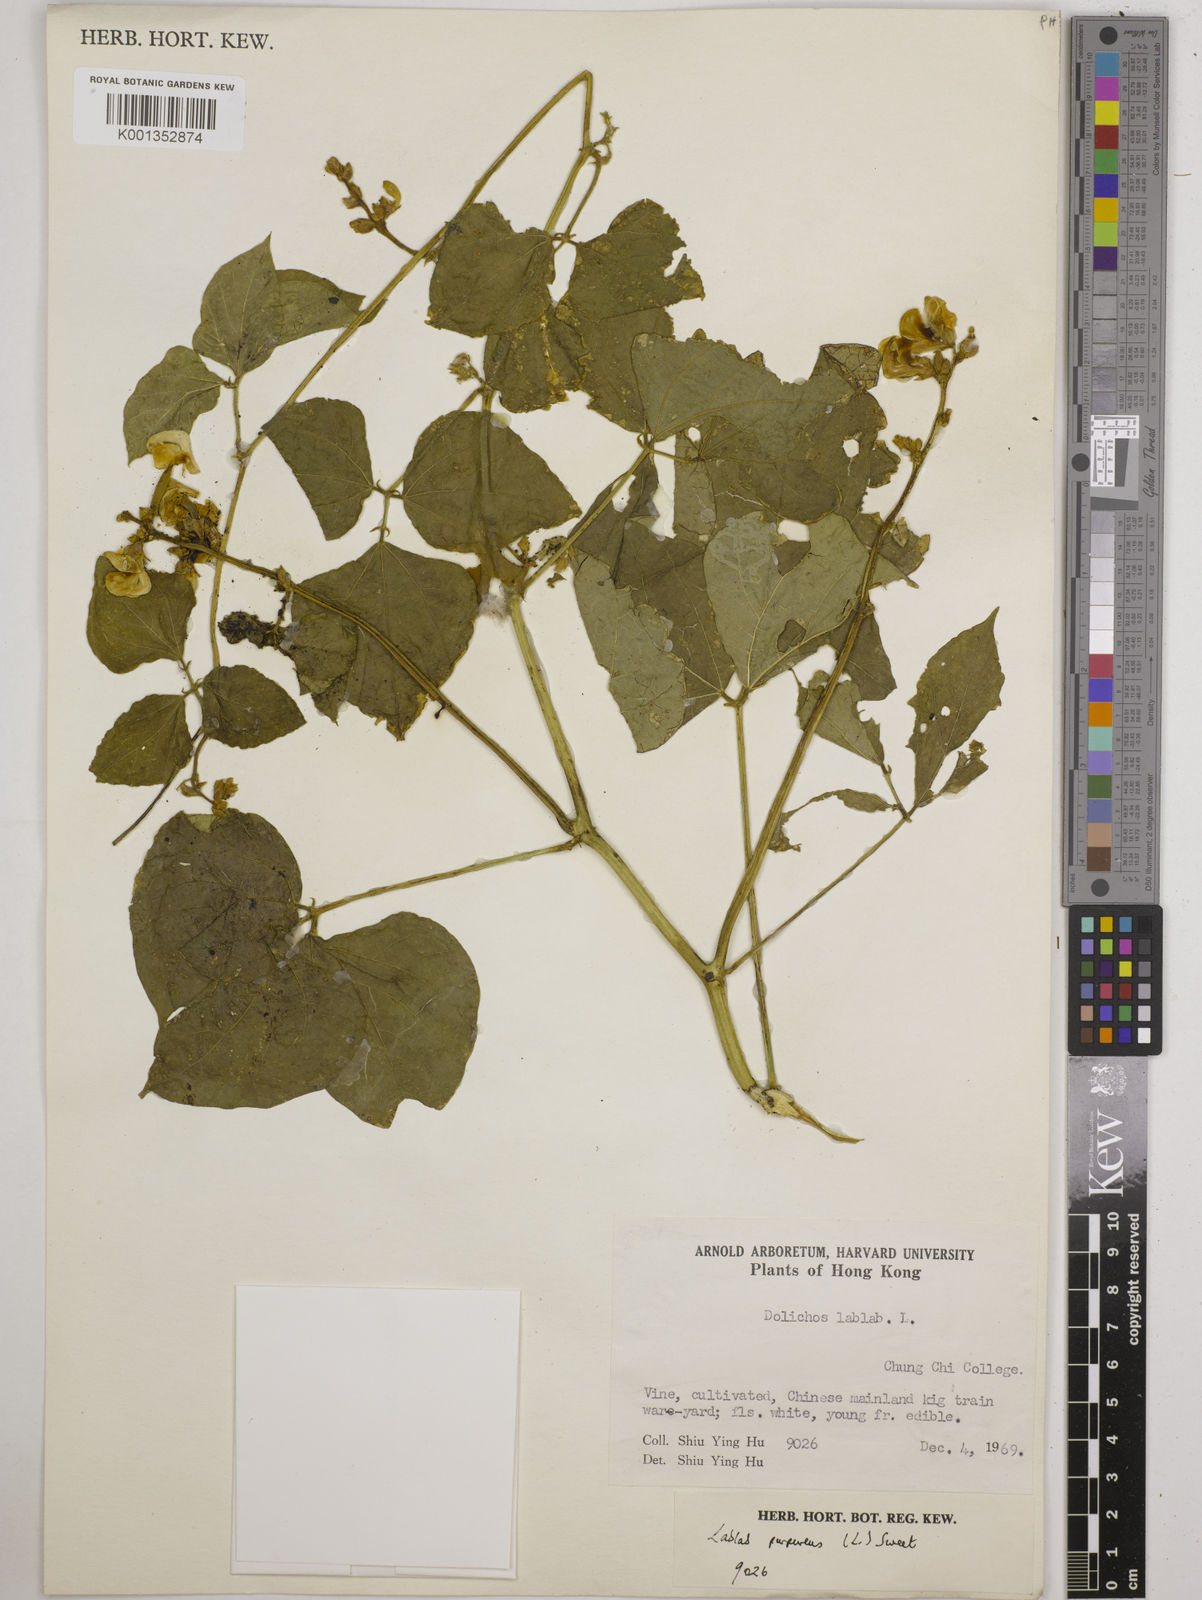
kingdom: Plantae
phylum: Tracheophyta
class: Magnoliopsida
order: Fabales
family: Fabaceae
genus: Lablab
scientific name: Lablab purpureus
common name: Lablab-bean
